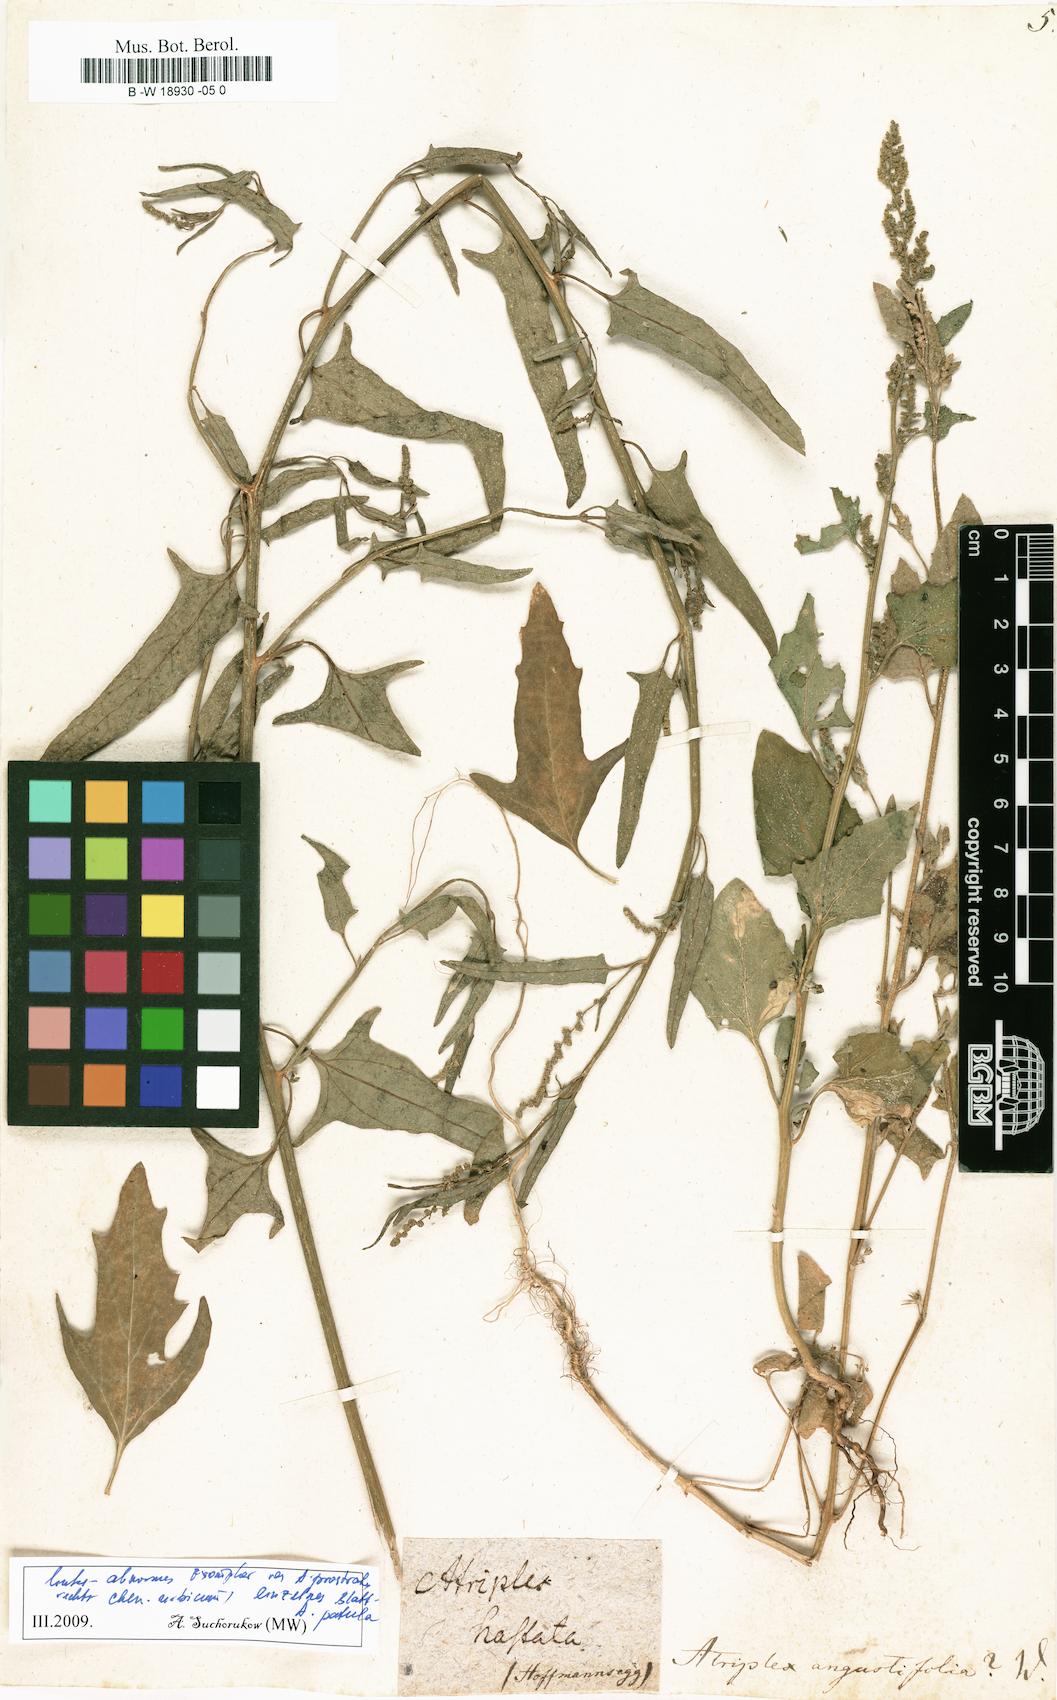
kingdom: Plantae
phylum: Tracheophyta
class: Magnoliopsida
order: Caryophyllales
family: Amaranthaceae
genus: Atriplex
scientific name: Atriplex repanda
